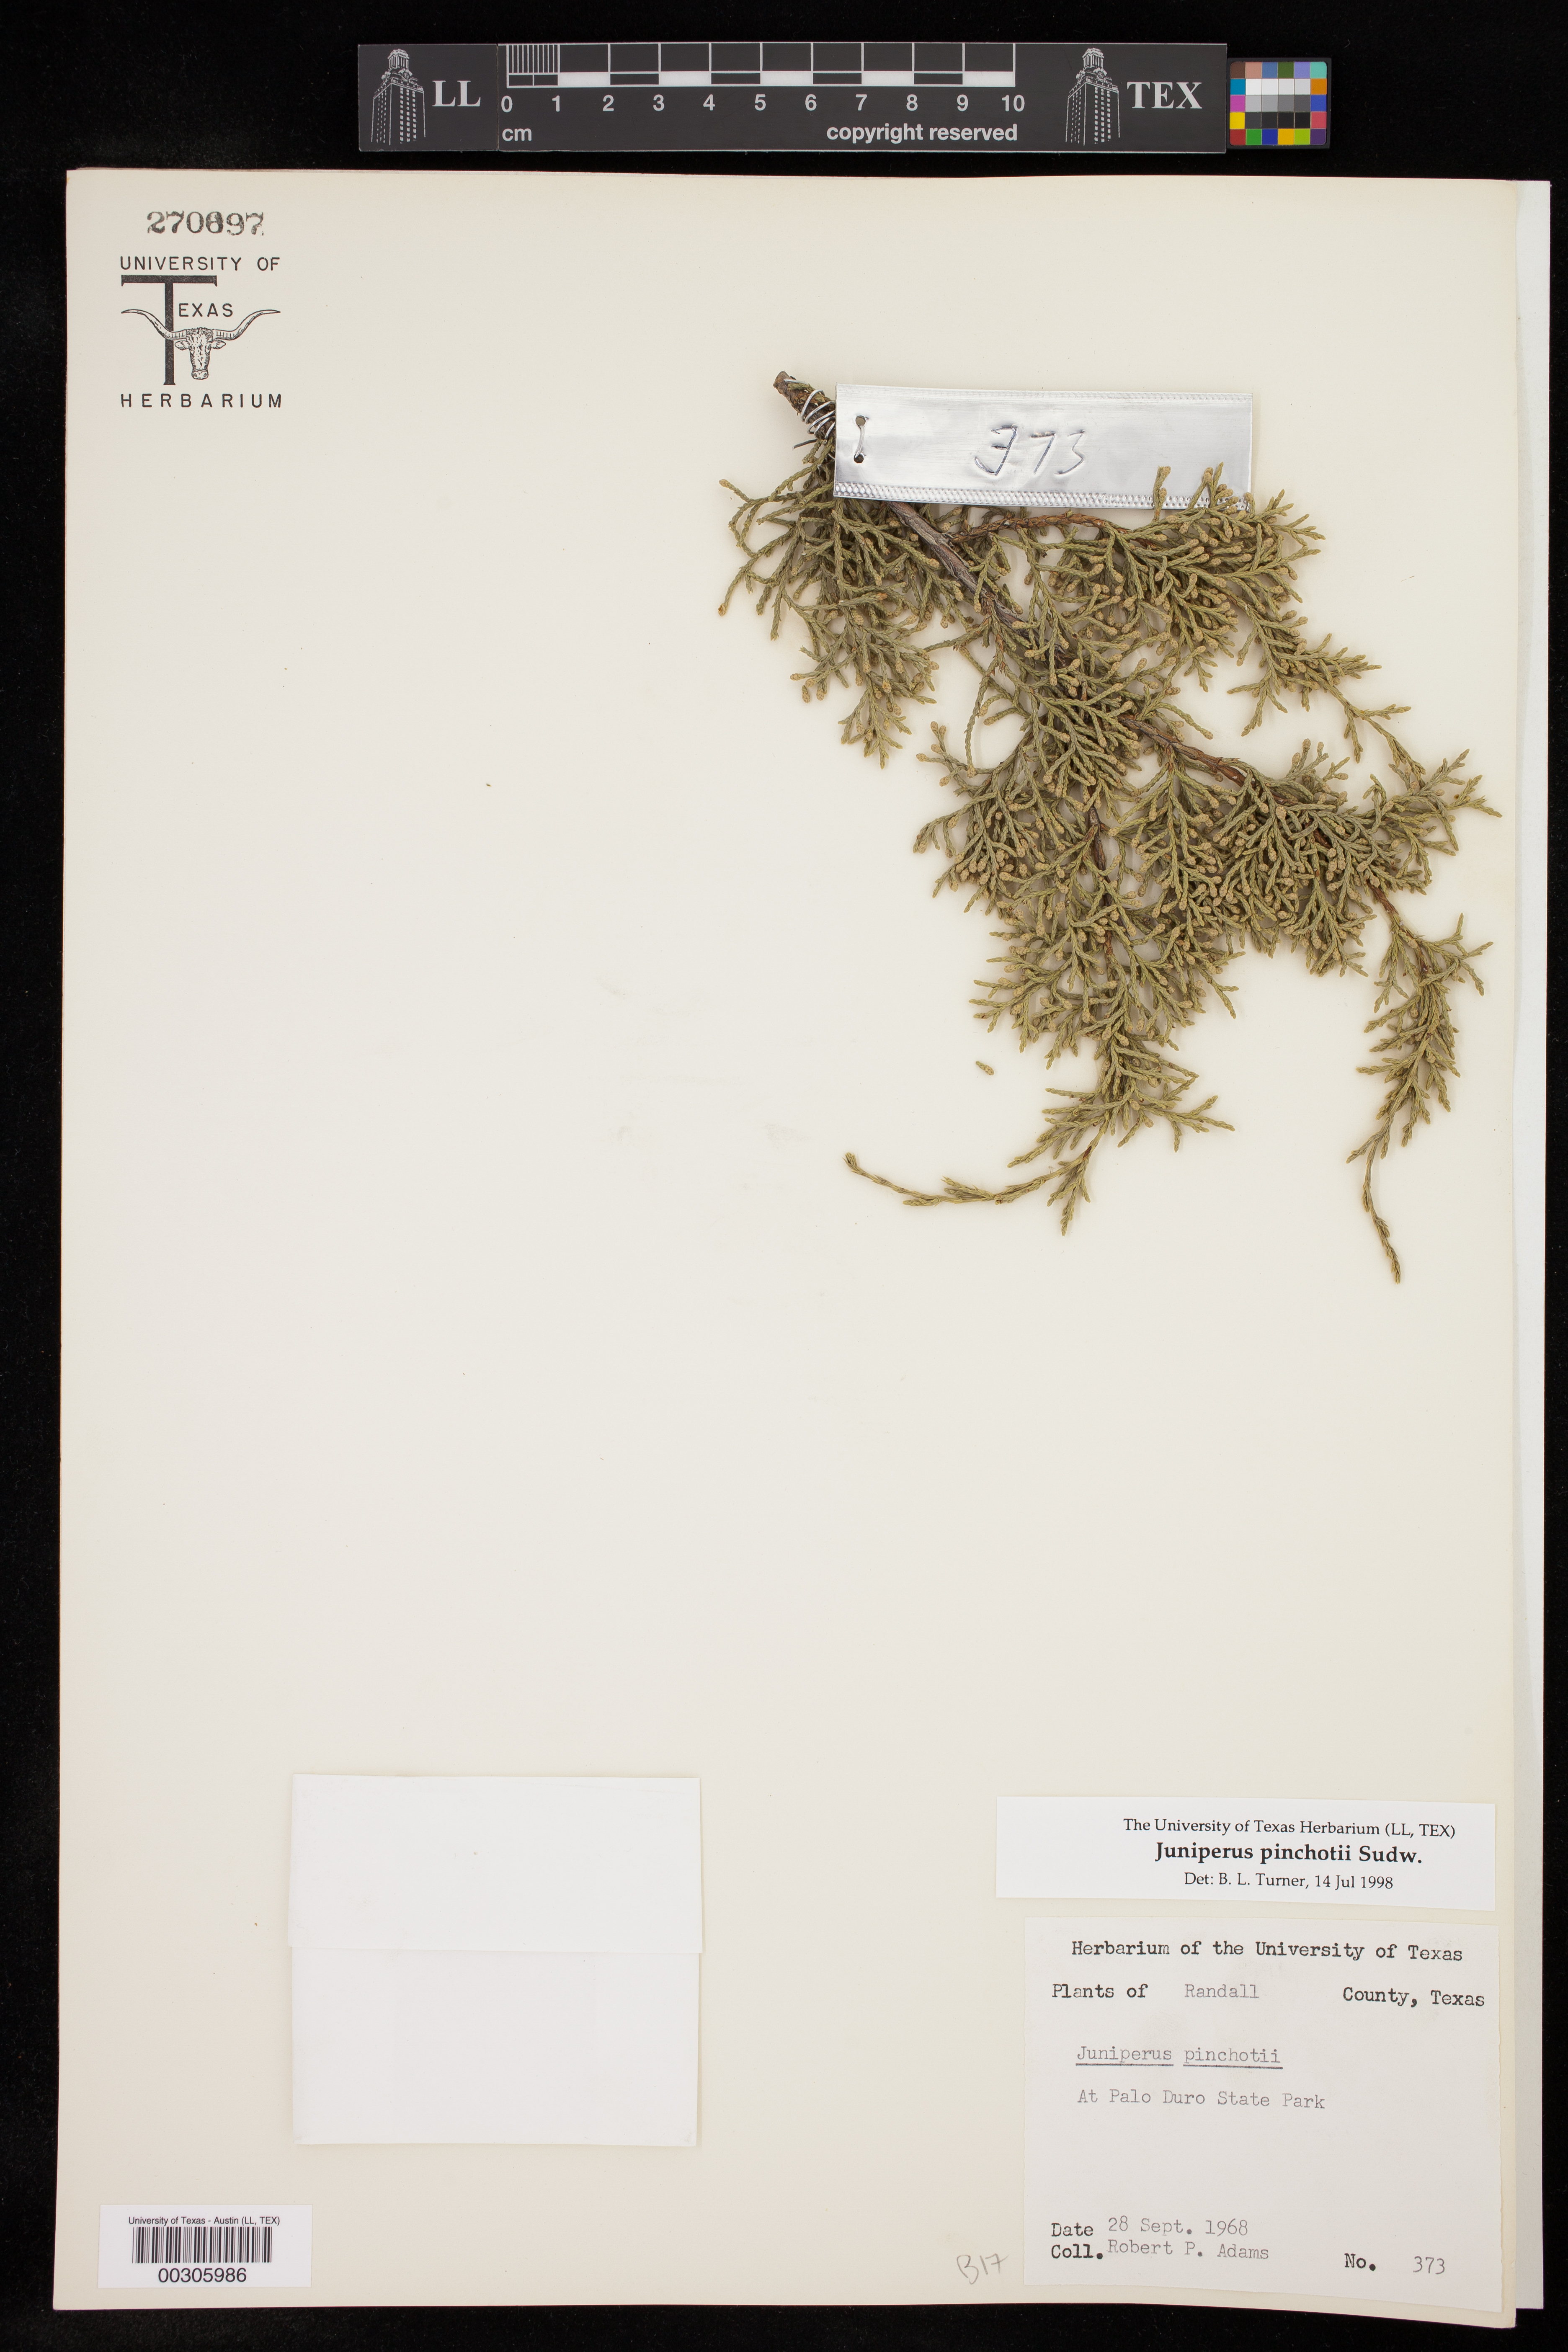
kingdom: Plantae
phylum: Tracheophyta
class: Pinopsida
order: Pinales
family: Cupressaceae
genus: Juniperus
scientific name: Juniperus pinchotii
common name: Pinchot juniper
